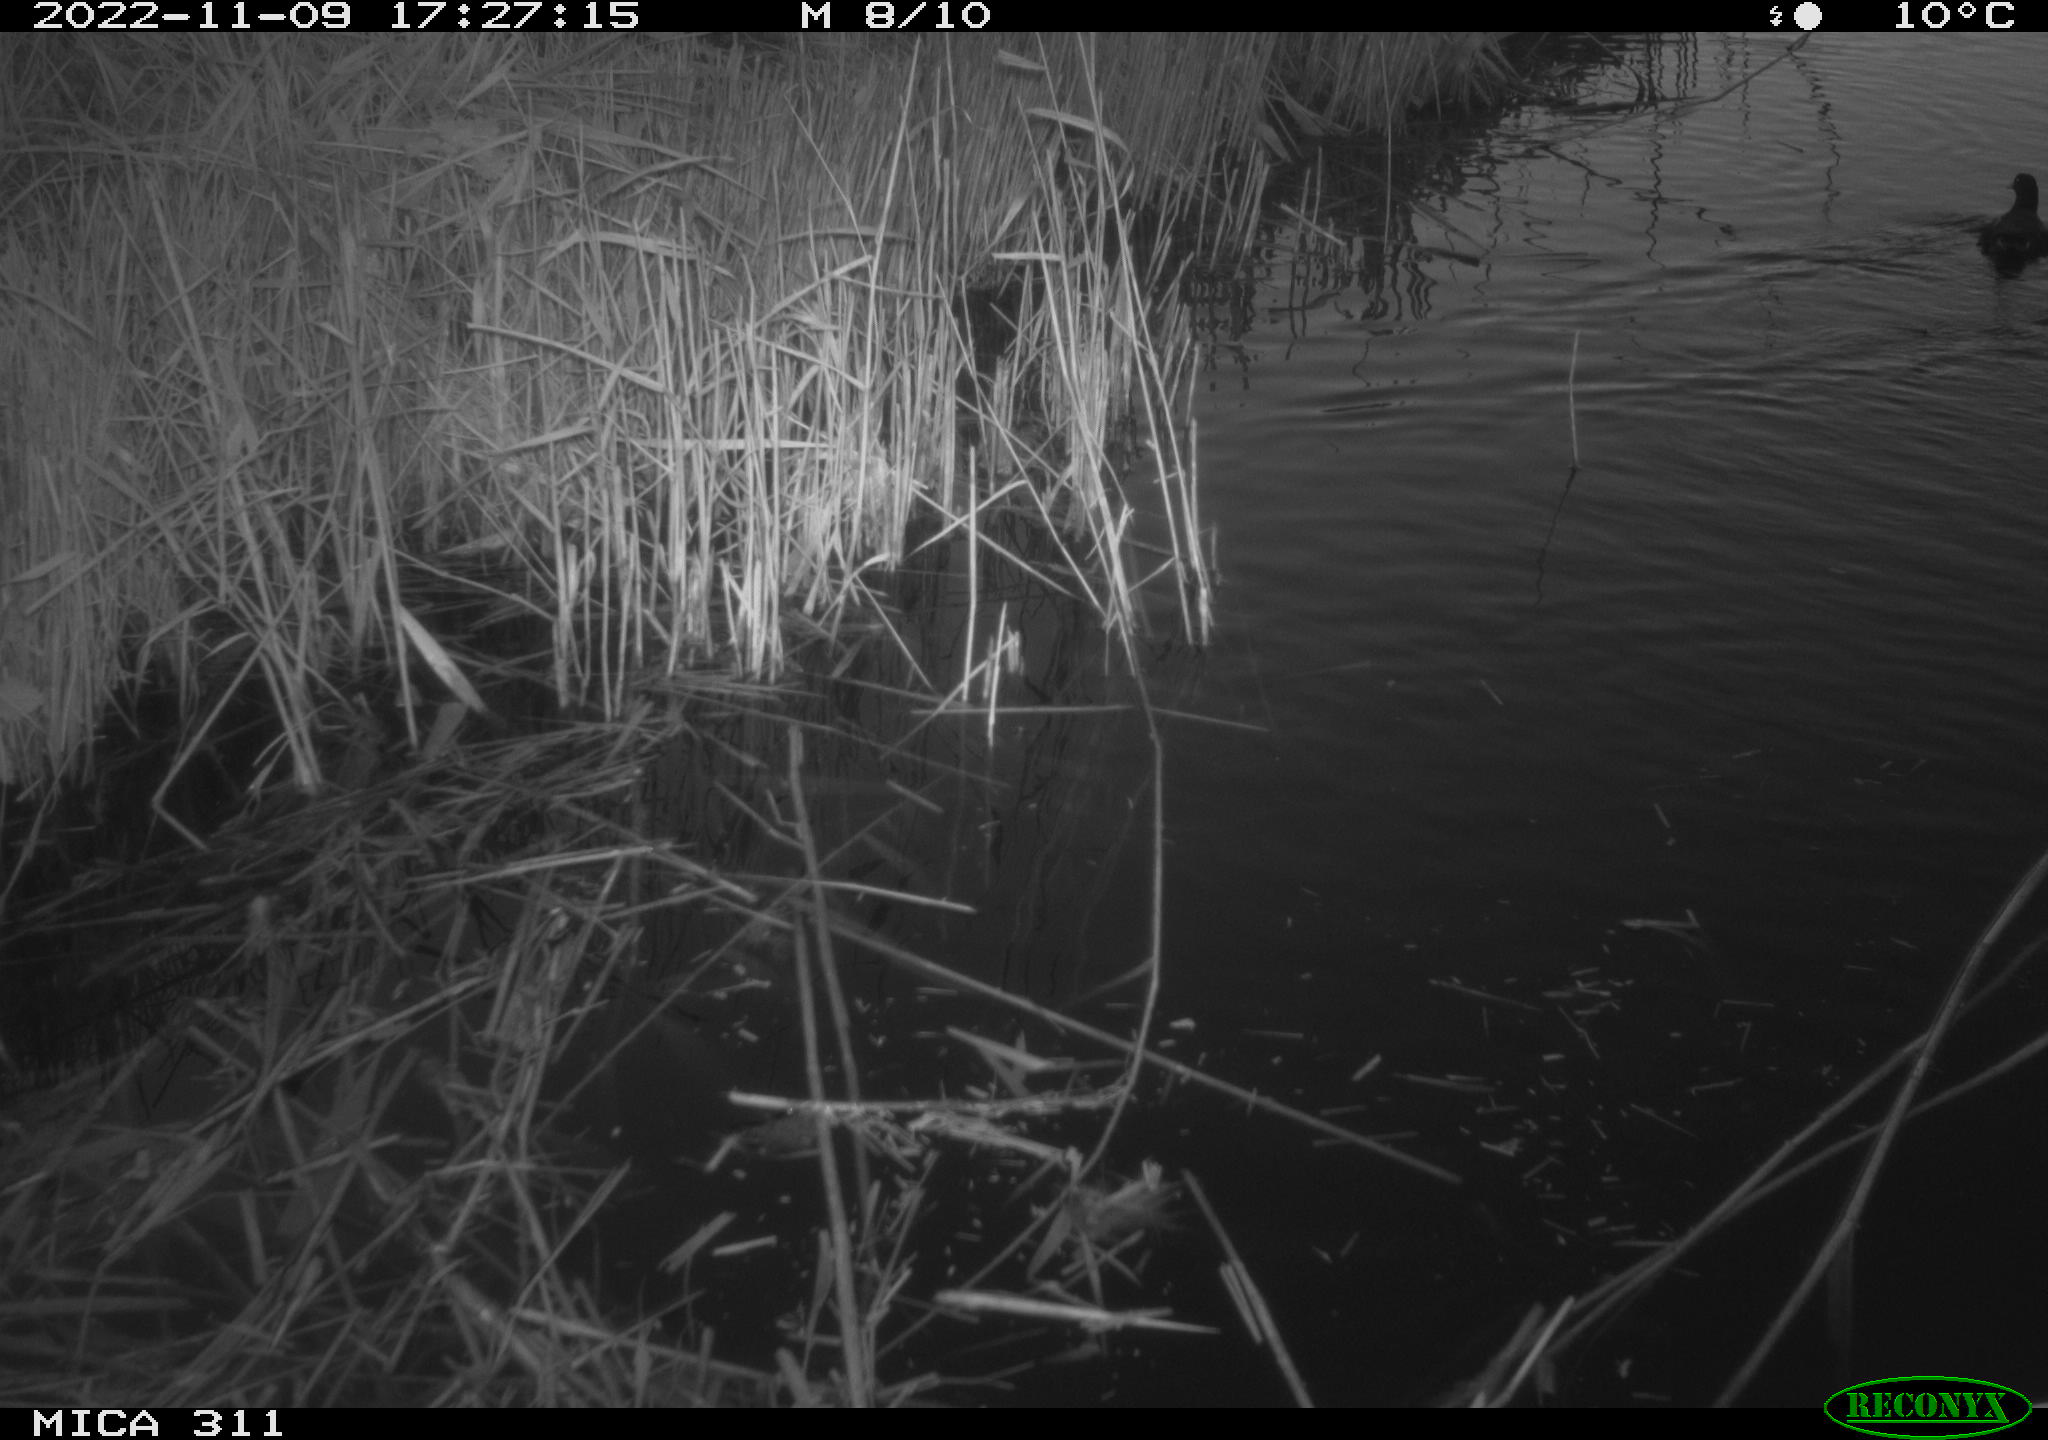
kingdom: Animalia
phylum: Chordata
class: Aves
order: Gruiformes
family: Rallidae
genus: Gallinula
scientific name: Gallinula chloropus
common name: Common moorhen
